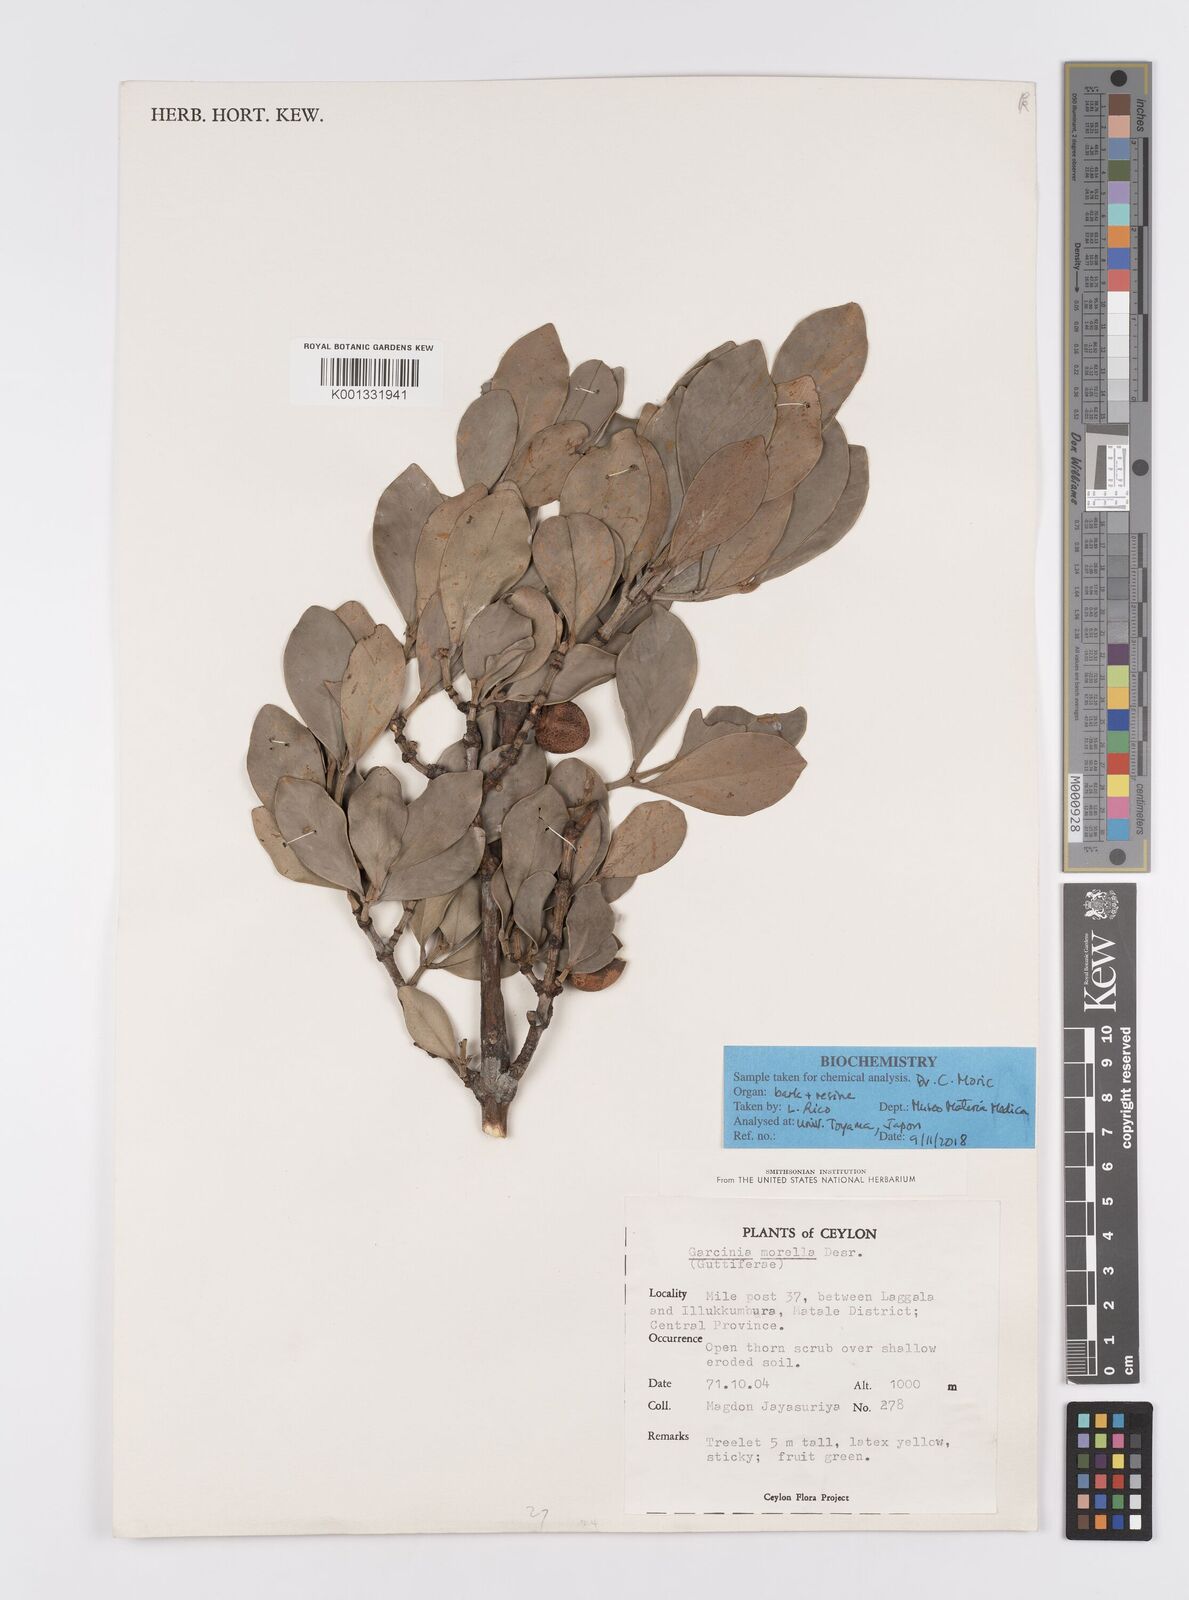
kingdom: Plantae
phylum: Tracheophyta
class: Magnoliopsida
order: Malpighiales
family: Clusiaceae
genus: Garcinia
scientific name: Garcinia morella
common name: Indian gamboge-tree
